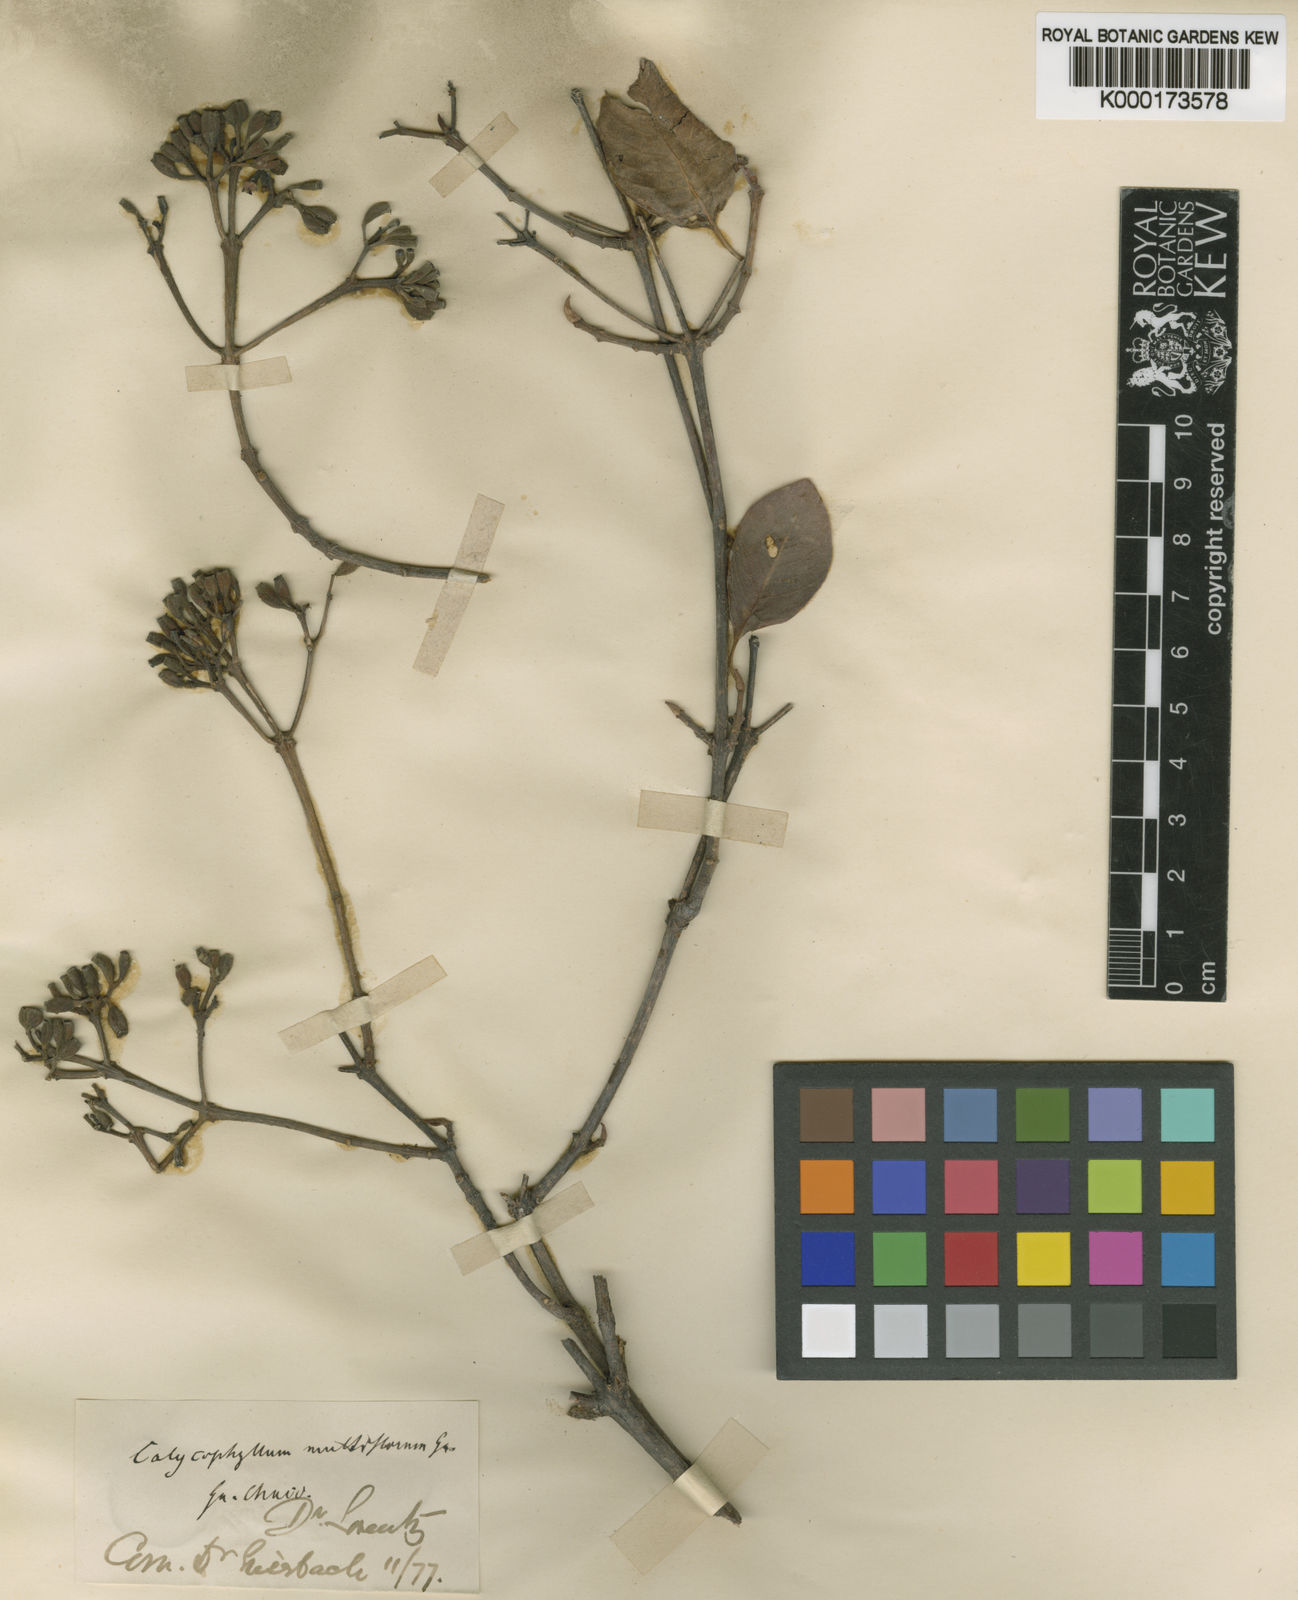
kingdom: Plantae
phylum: Tracheophyta
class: Magnoliopsida
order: Gentianales
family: Rubiaceae
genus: Calycophyllum
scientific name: Calycophyllum multiflorum
